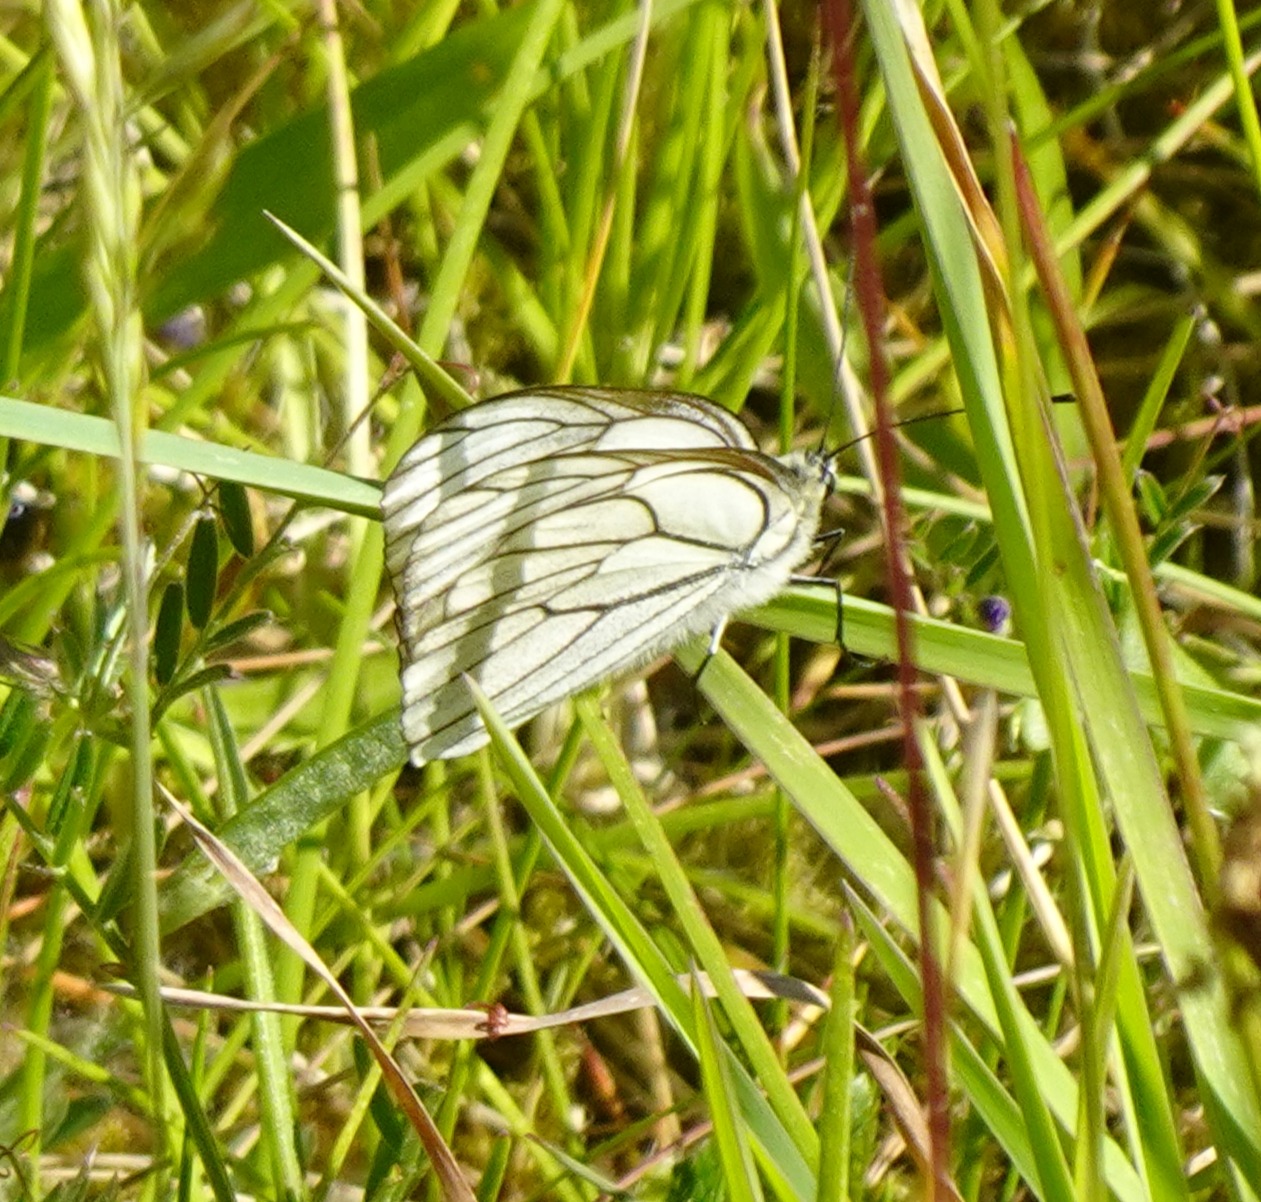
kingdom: Animalia
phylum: Arthropoda
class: Insecta
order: Lepidoptera
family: Pieridae
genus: Aporia
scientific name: Aporia crataegi
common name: Sortåret hvidvinge
